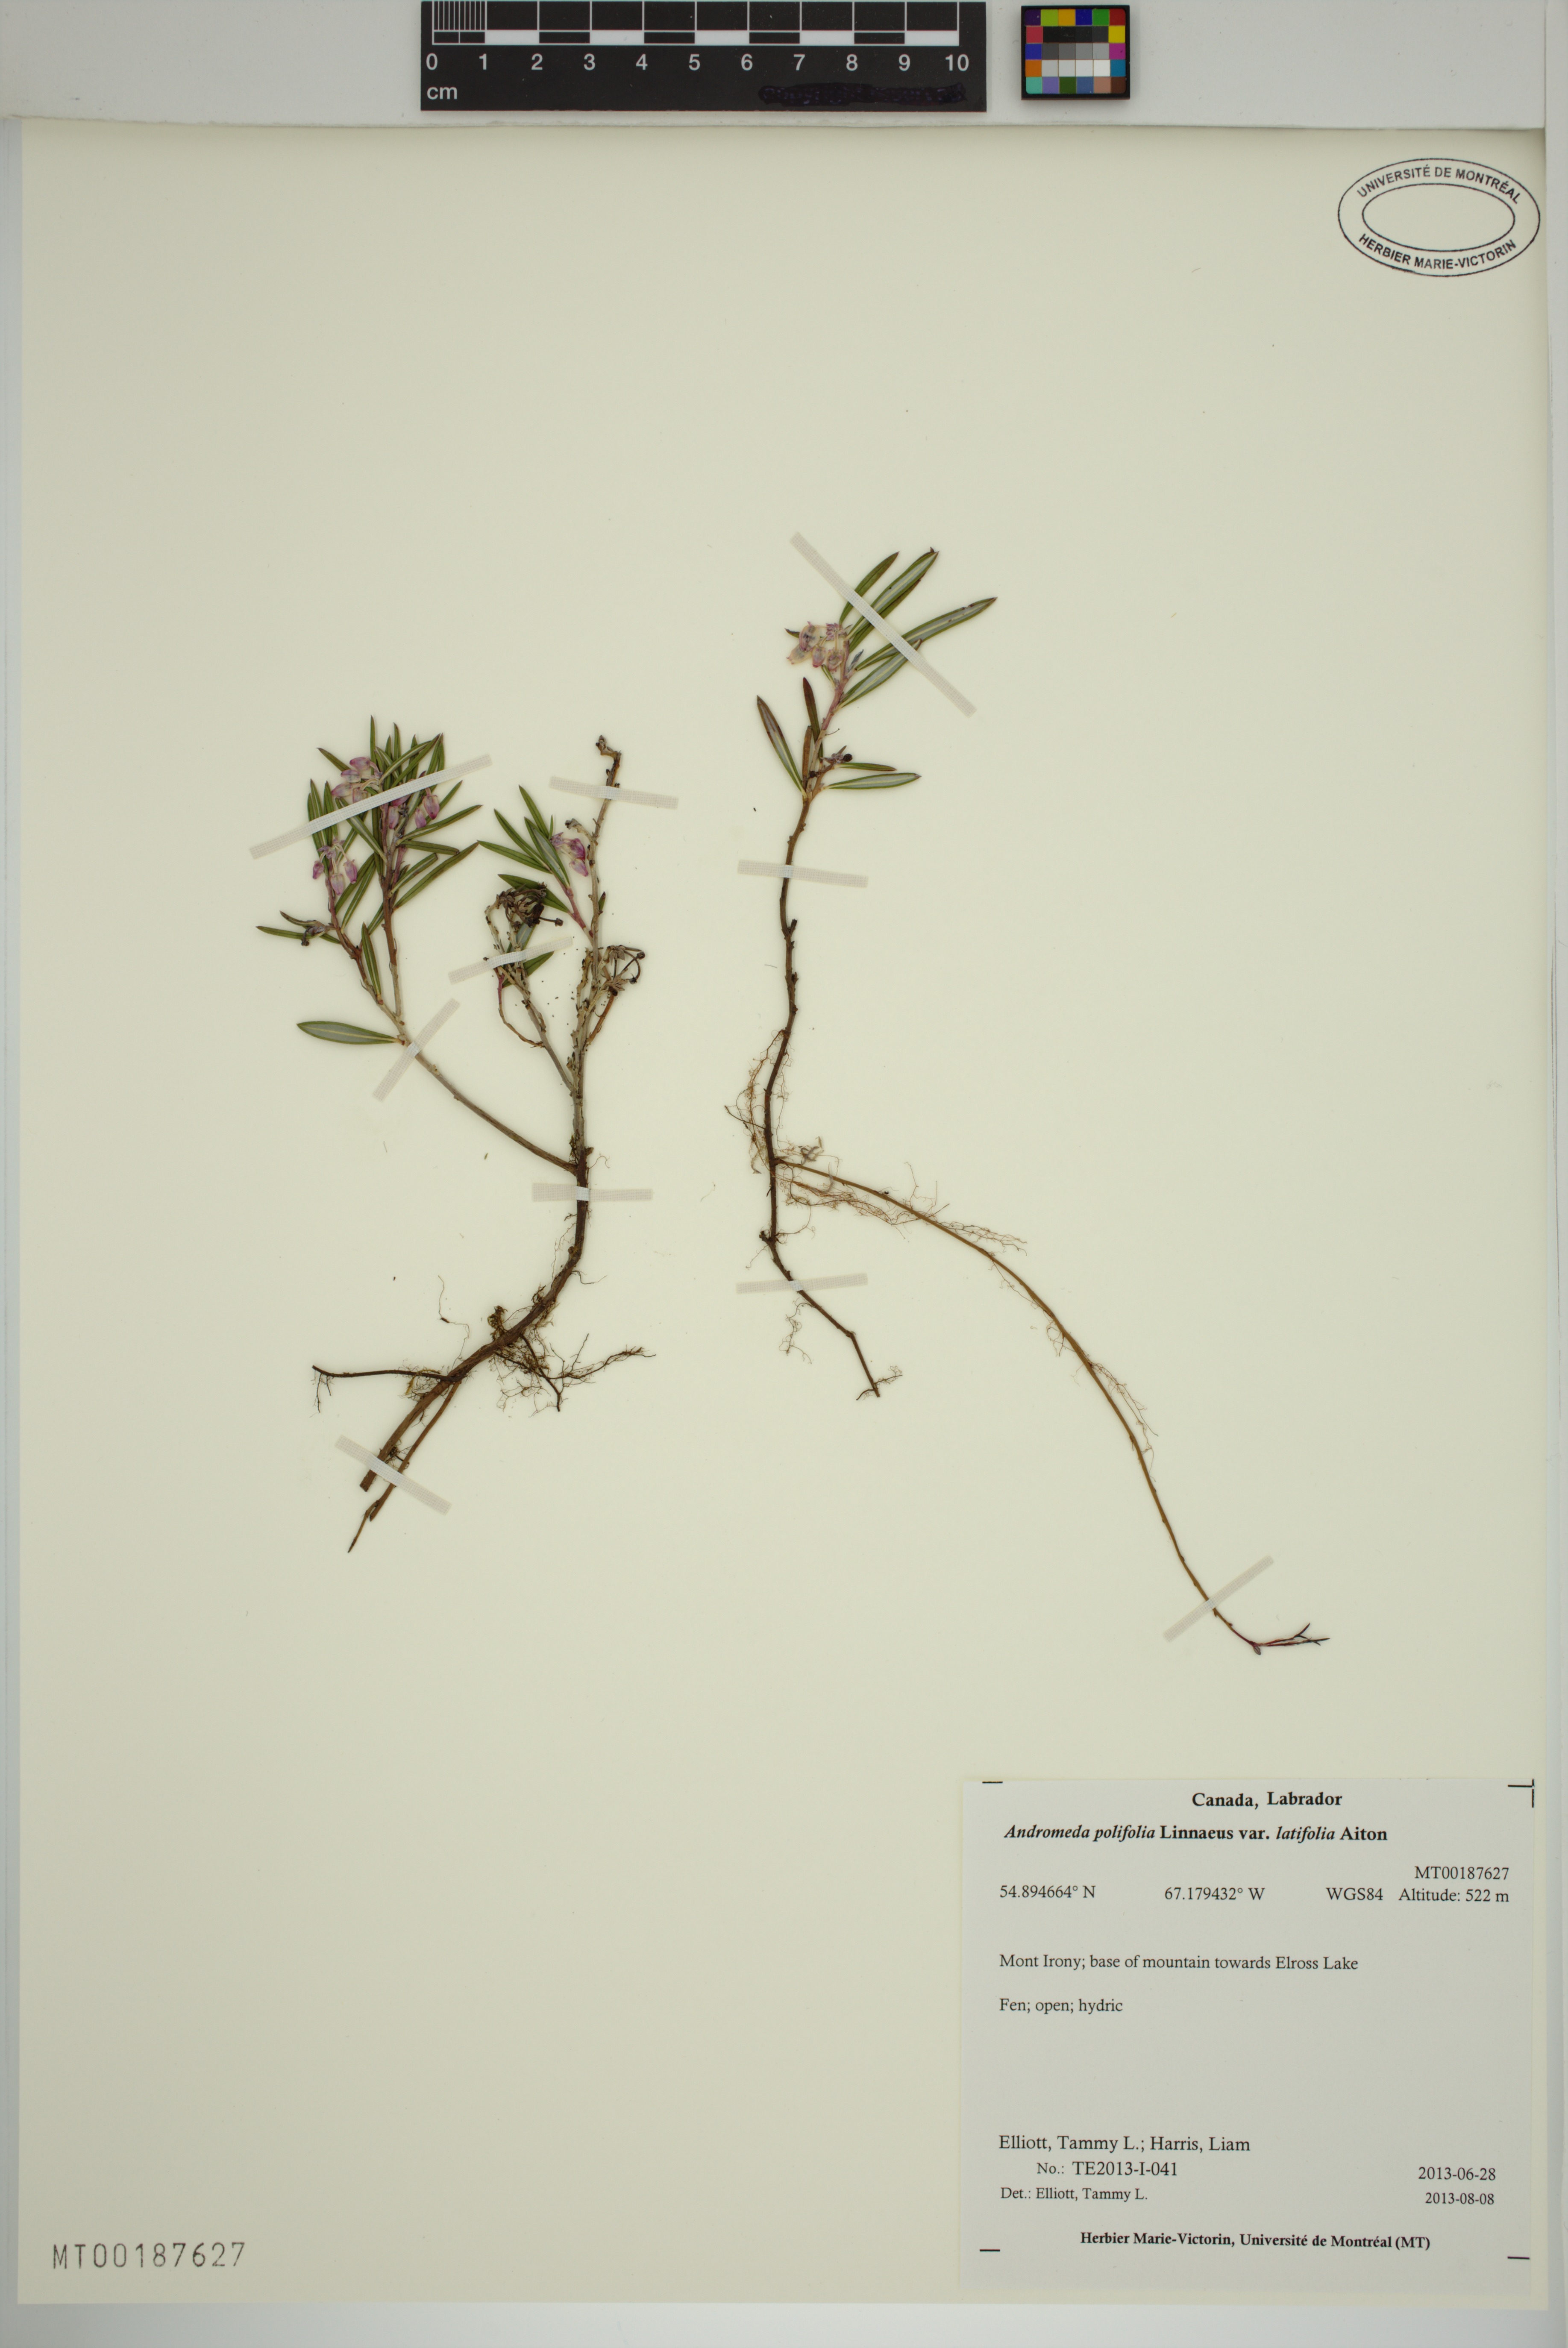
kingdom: Plantae
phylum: Tracheophyta
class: Magnoliopsida
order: Ericales
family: Ericaceae
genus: Andromeda
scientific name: Andromeda polifolia
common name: Bog-rosemary
